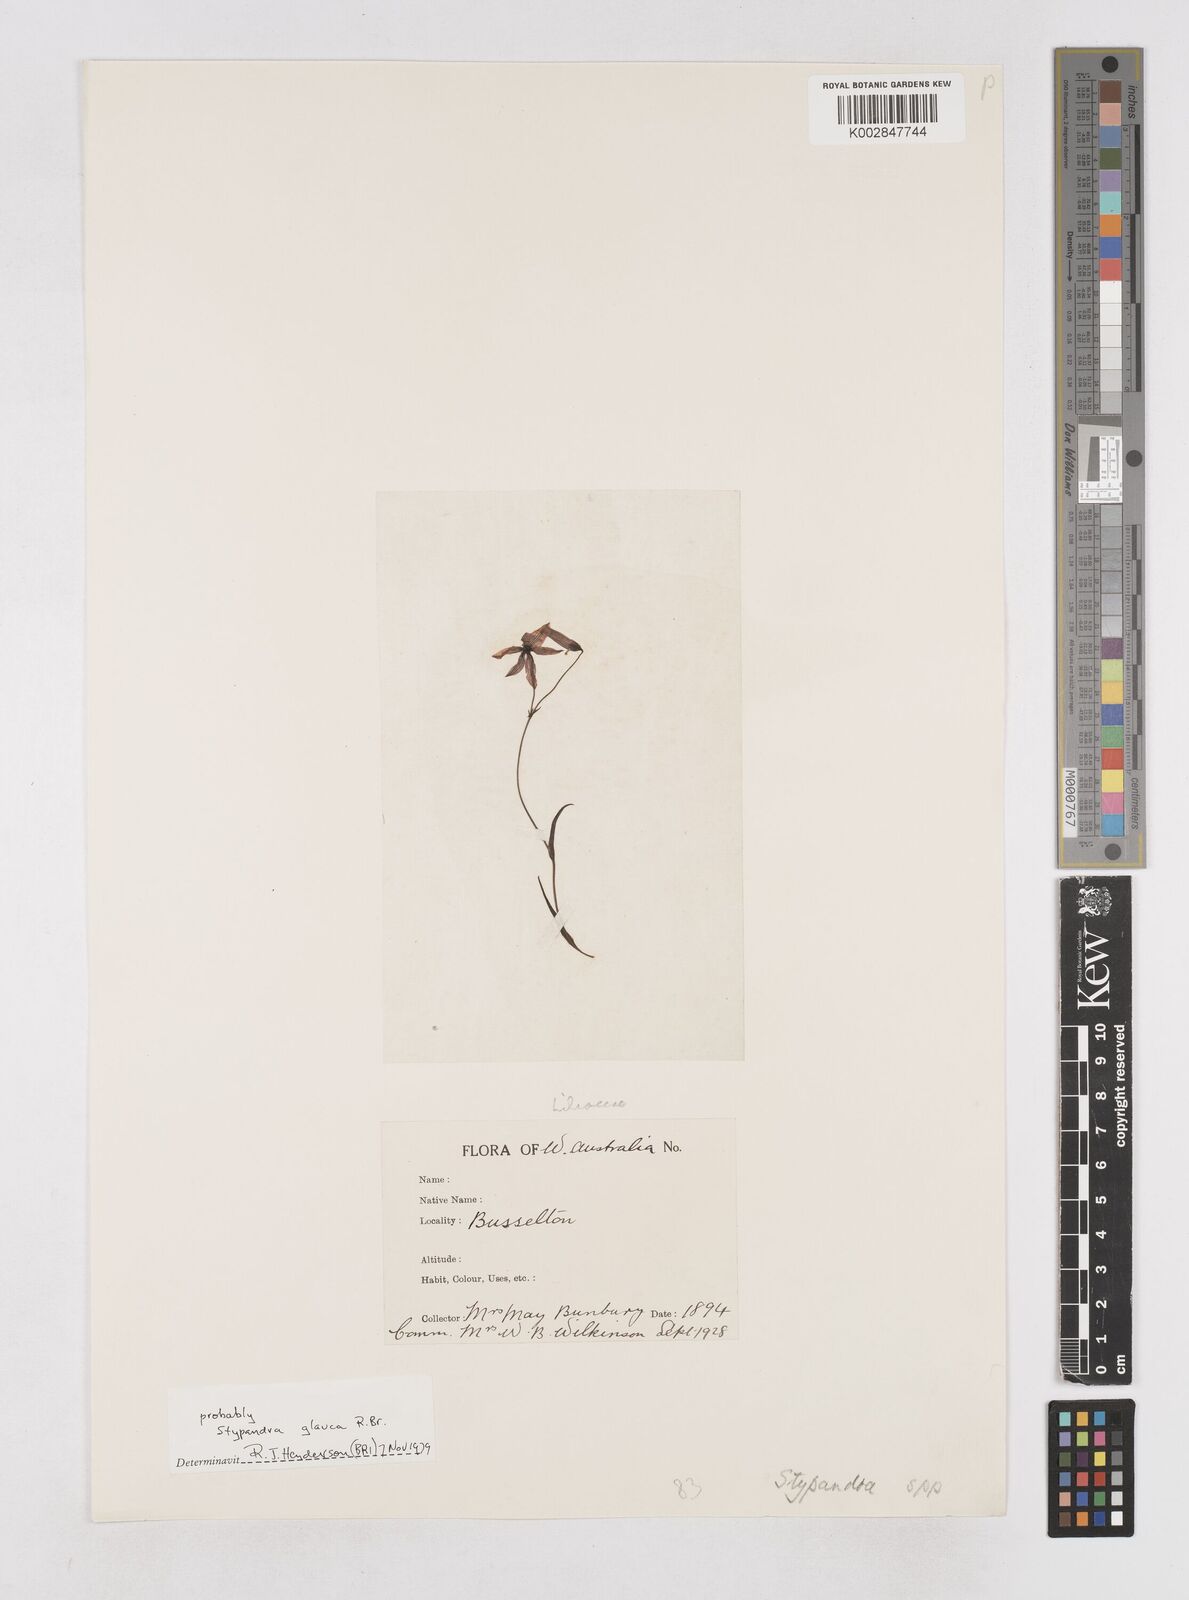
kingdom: Plantae
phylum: Tracheophyta
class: Liliopsida
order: Asparagales
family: Asphodelaceae
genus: Stypandra
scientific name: Stypandra glauca
